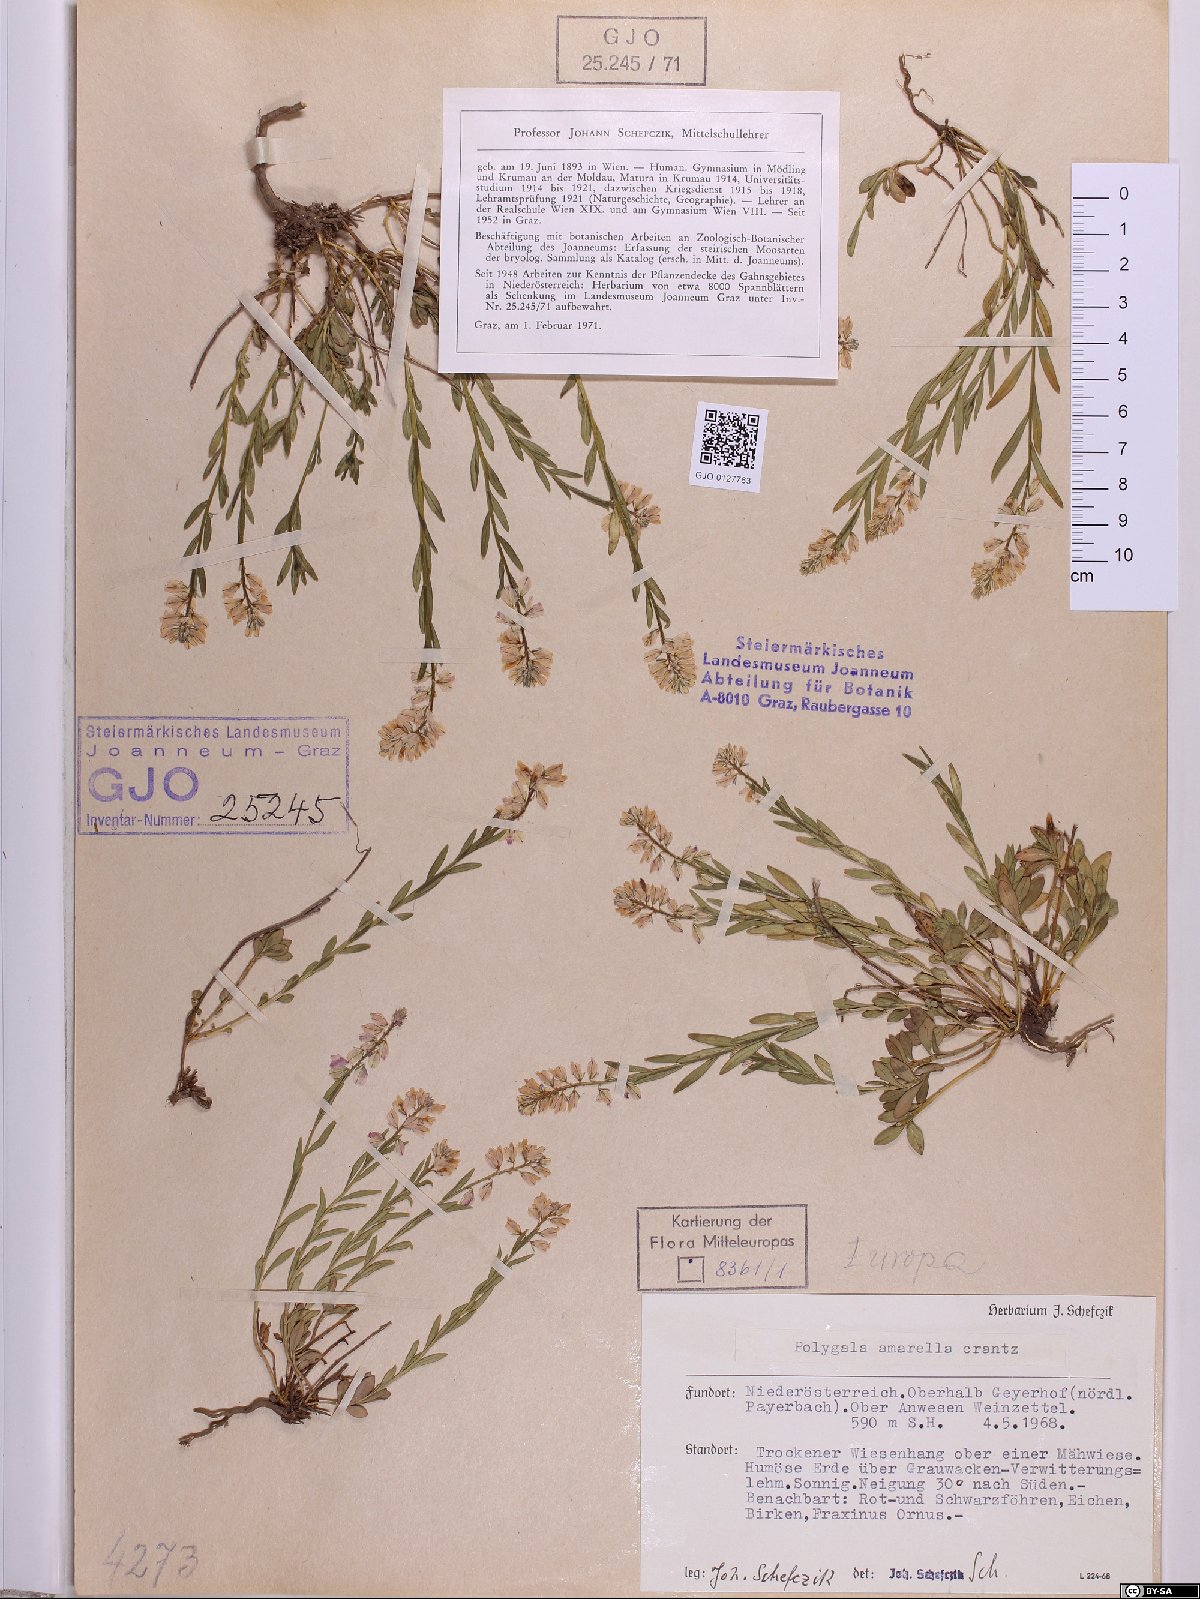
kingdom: Plantae
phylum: Tracheophyta
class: Magnoliopsida
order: Fabales
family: Polygalaceae
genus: Polygala
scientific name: Polygala amarella
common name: Dwarf milkwort
